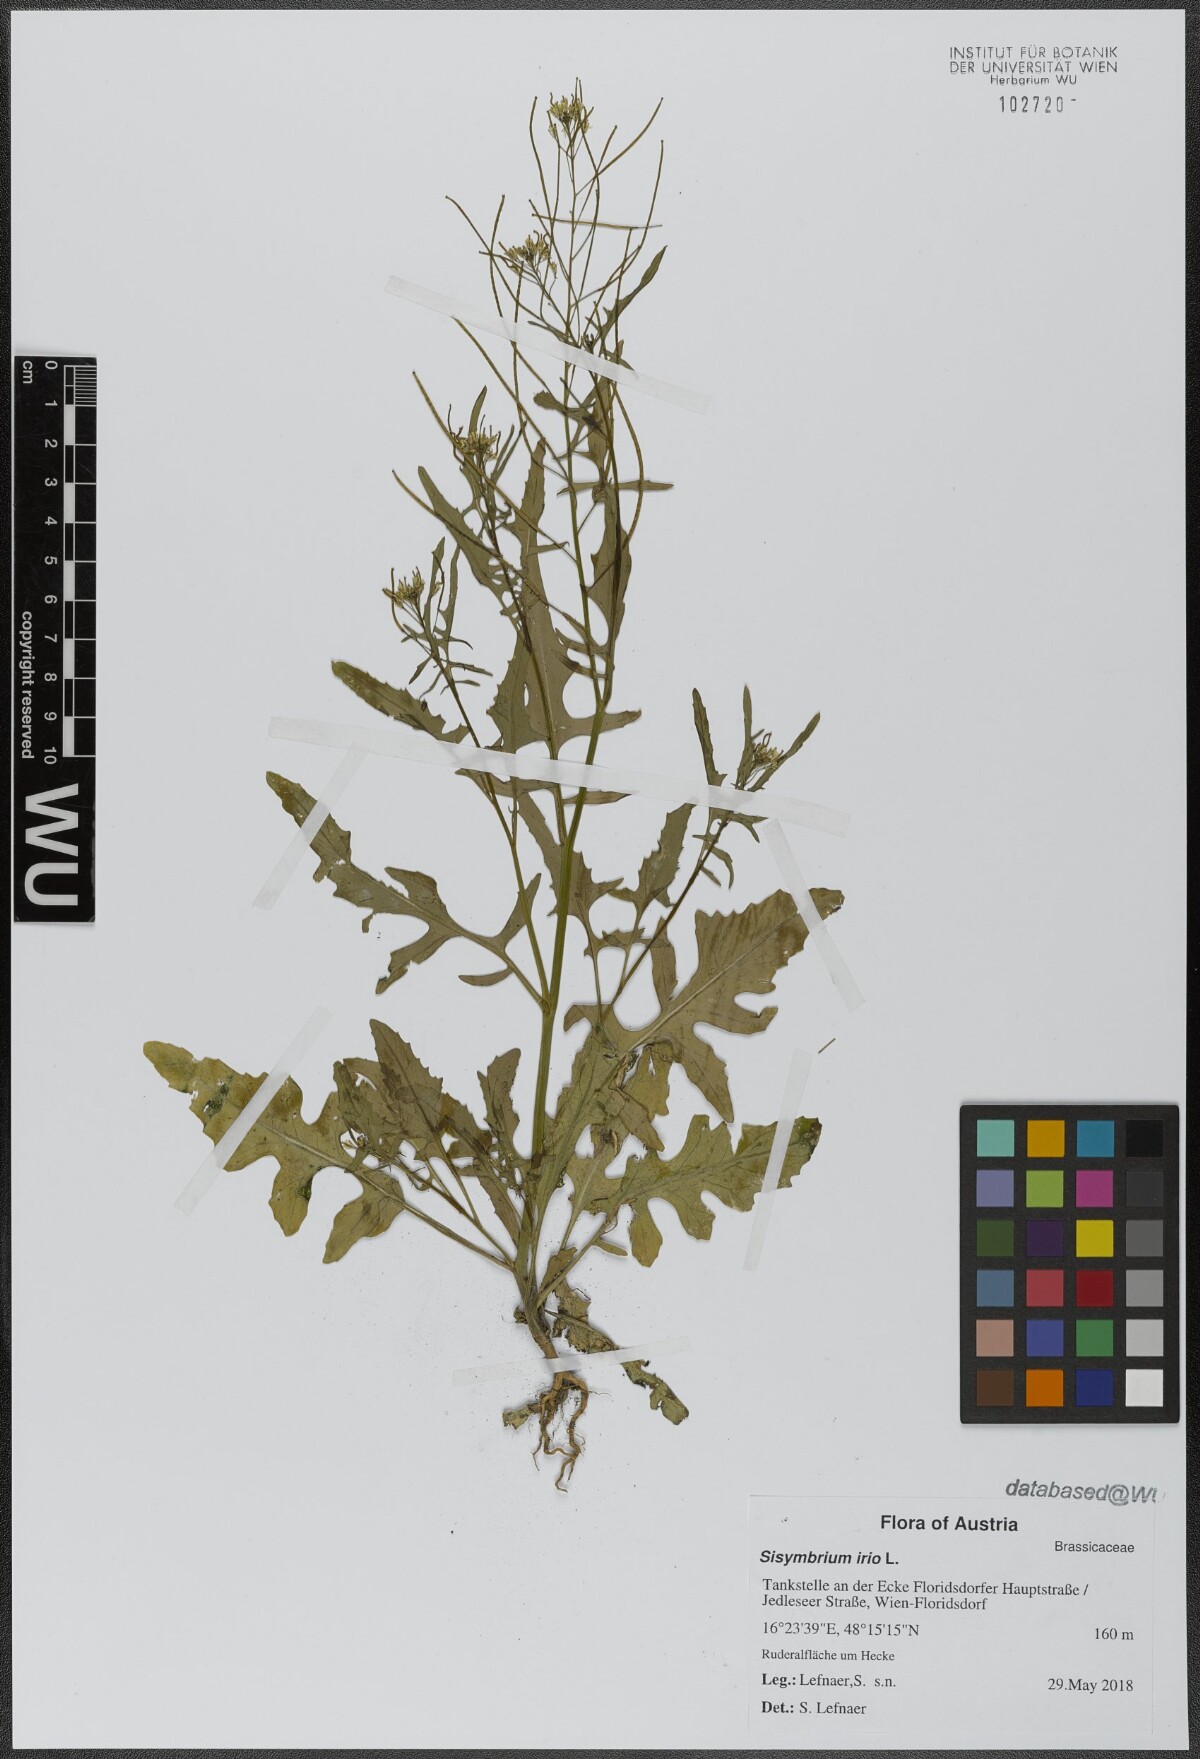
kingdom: Plantae
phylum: Tracheophyta
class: Magnoliopsida
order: Brassicales
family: Brassicaceae
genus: Sisymbrium
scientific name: Sisymbrium irio
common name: London rocket
